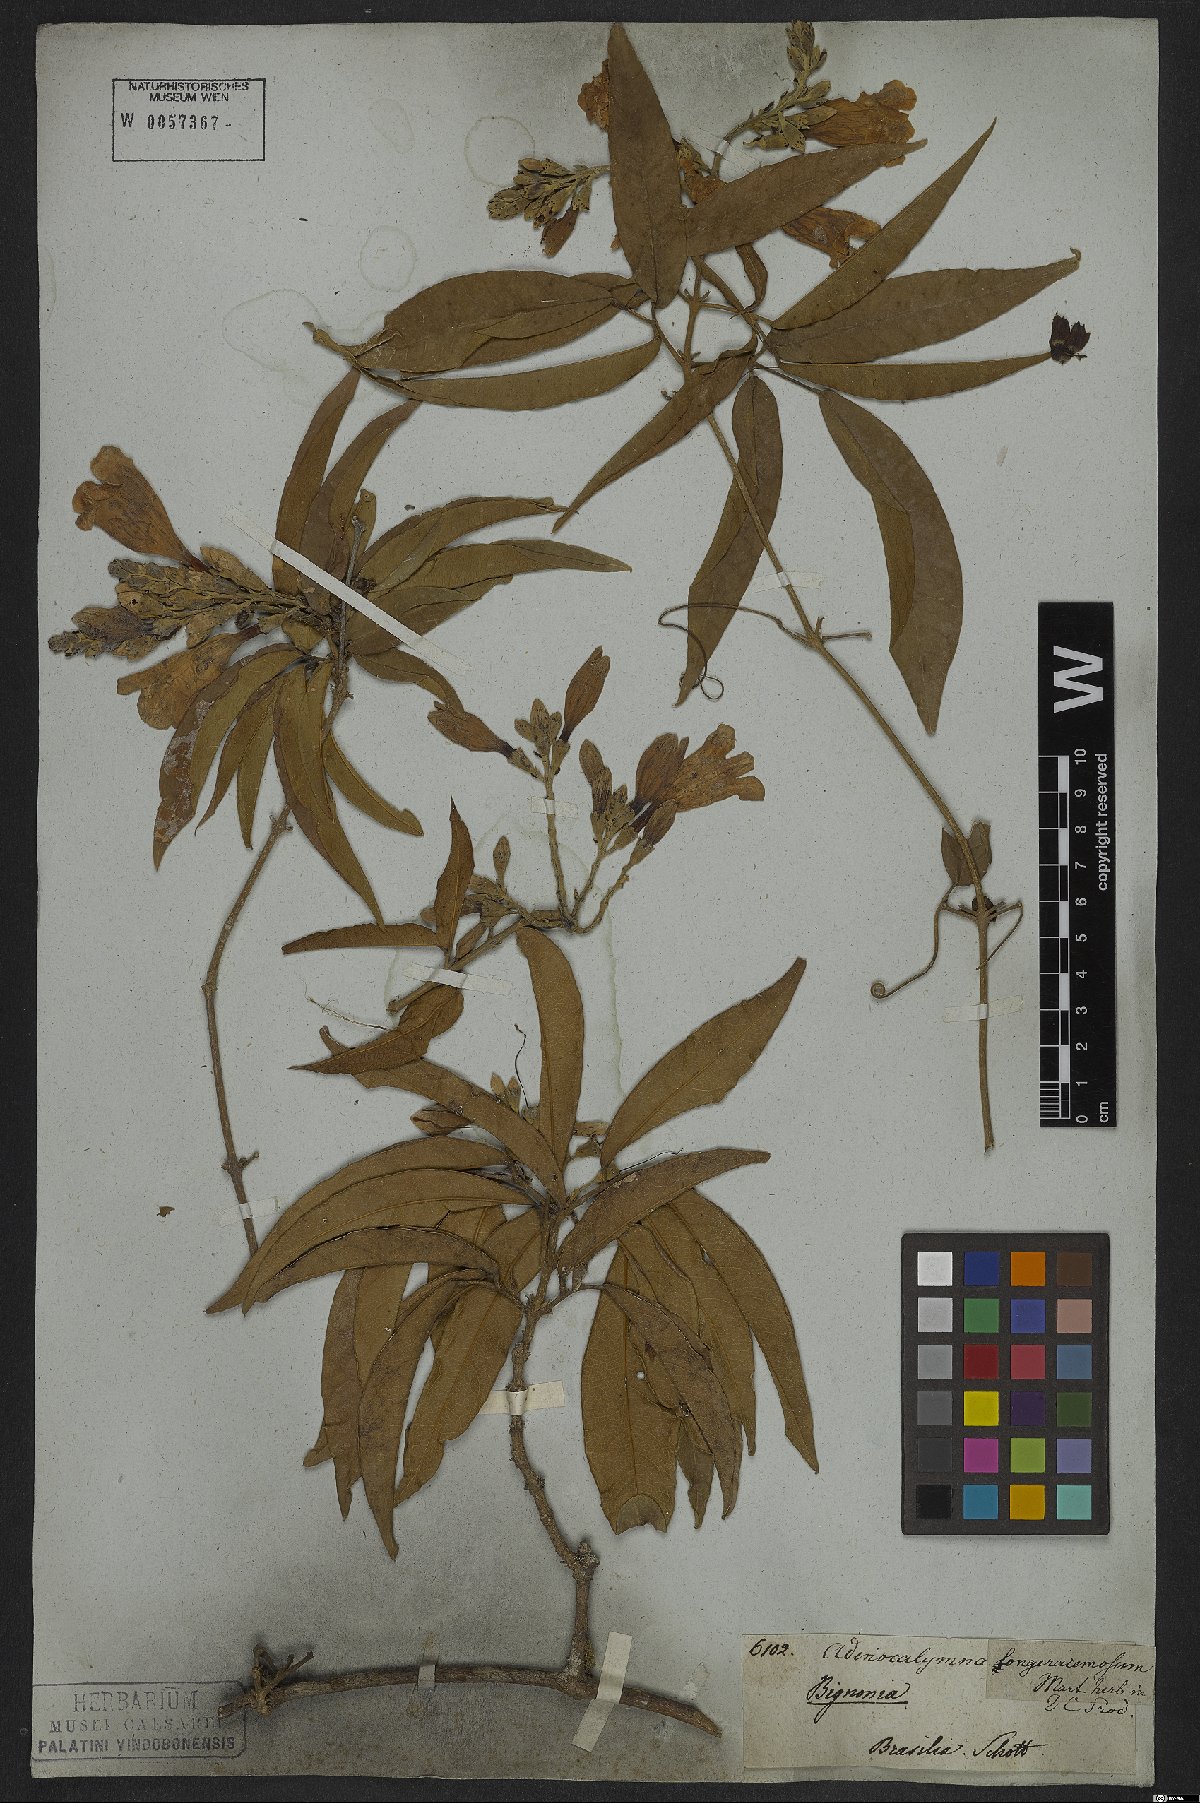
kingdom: Plantae
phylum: Tracheophyta
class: Magnoliopsida
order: Lamiales
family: Bignoniaceae
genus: Adenocalymma
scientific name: Adenocalymma trifoliatum
